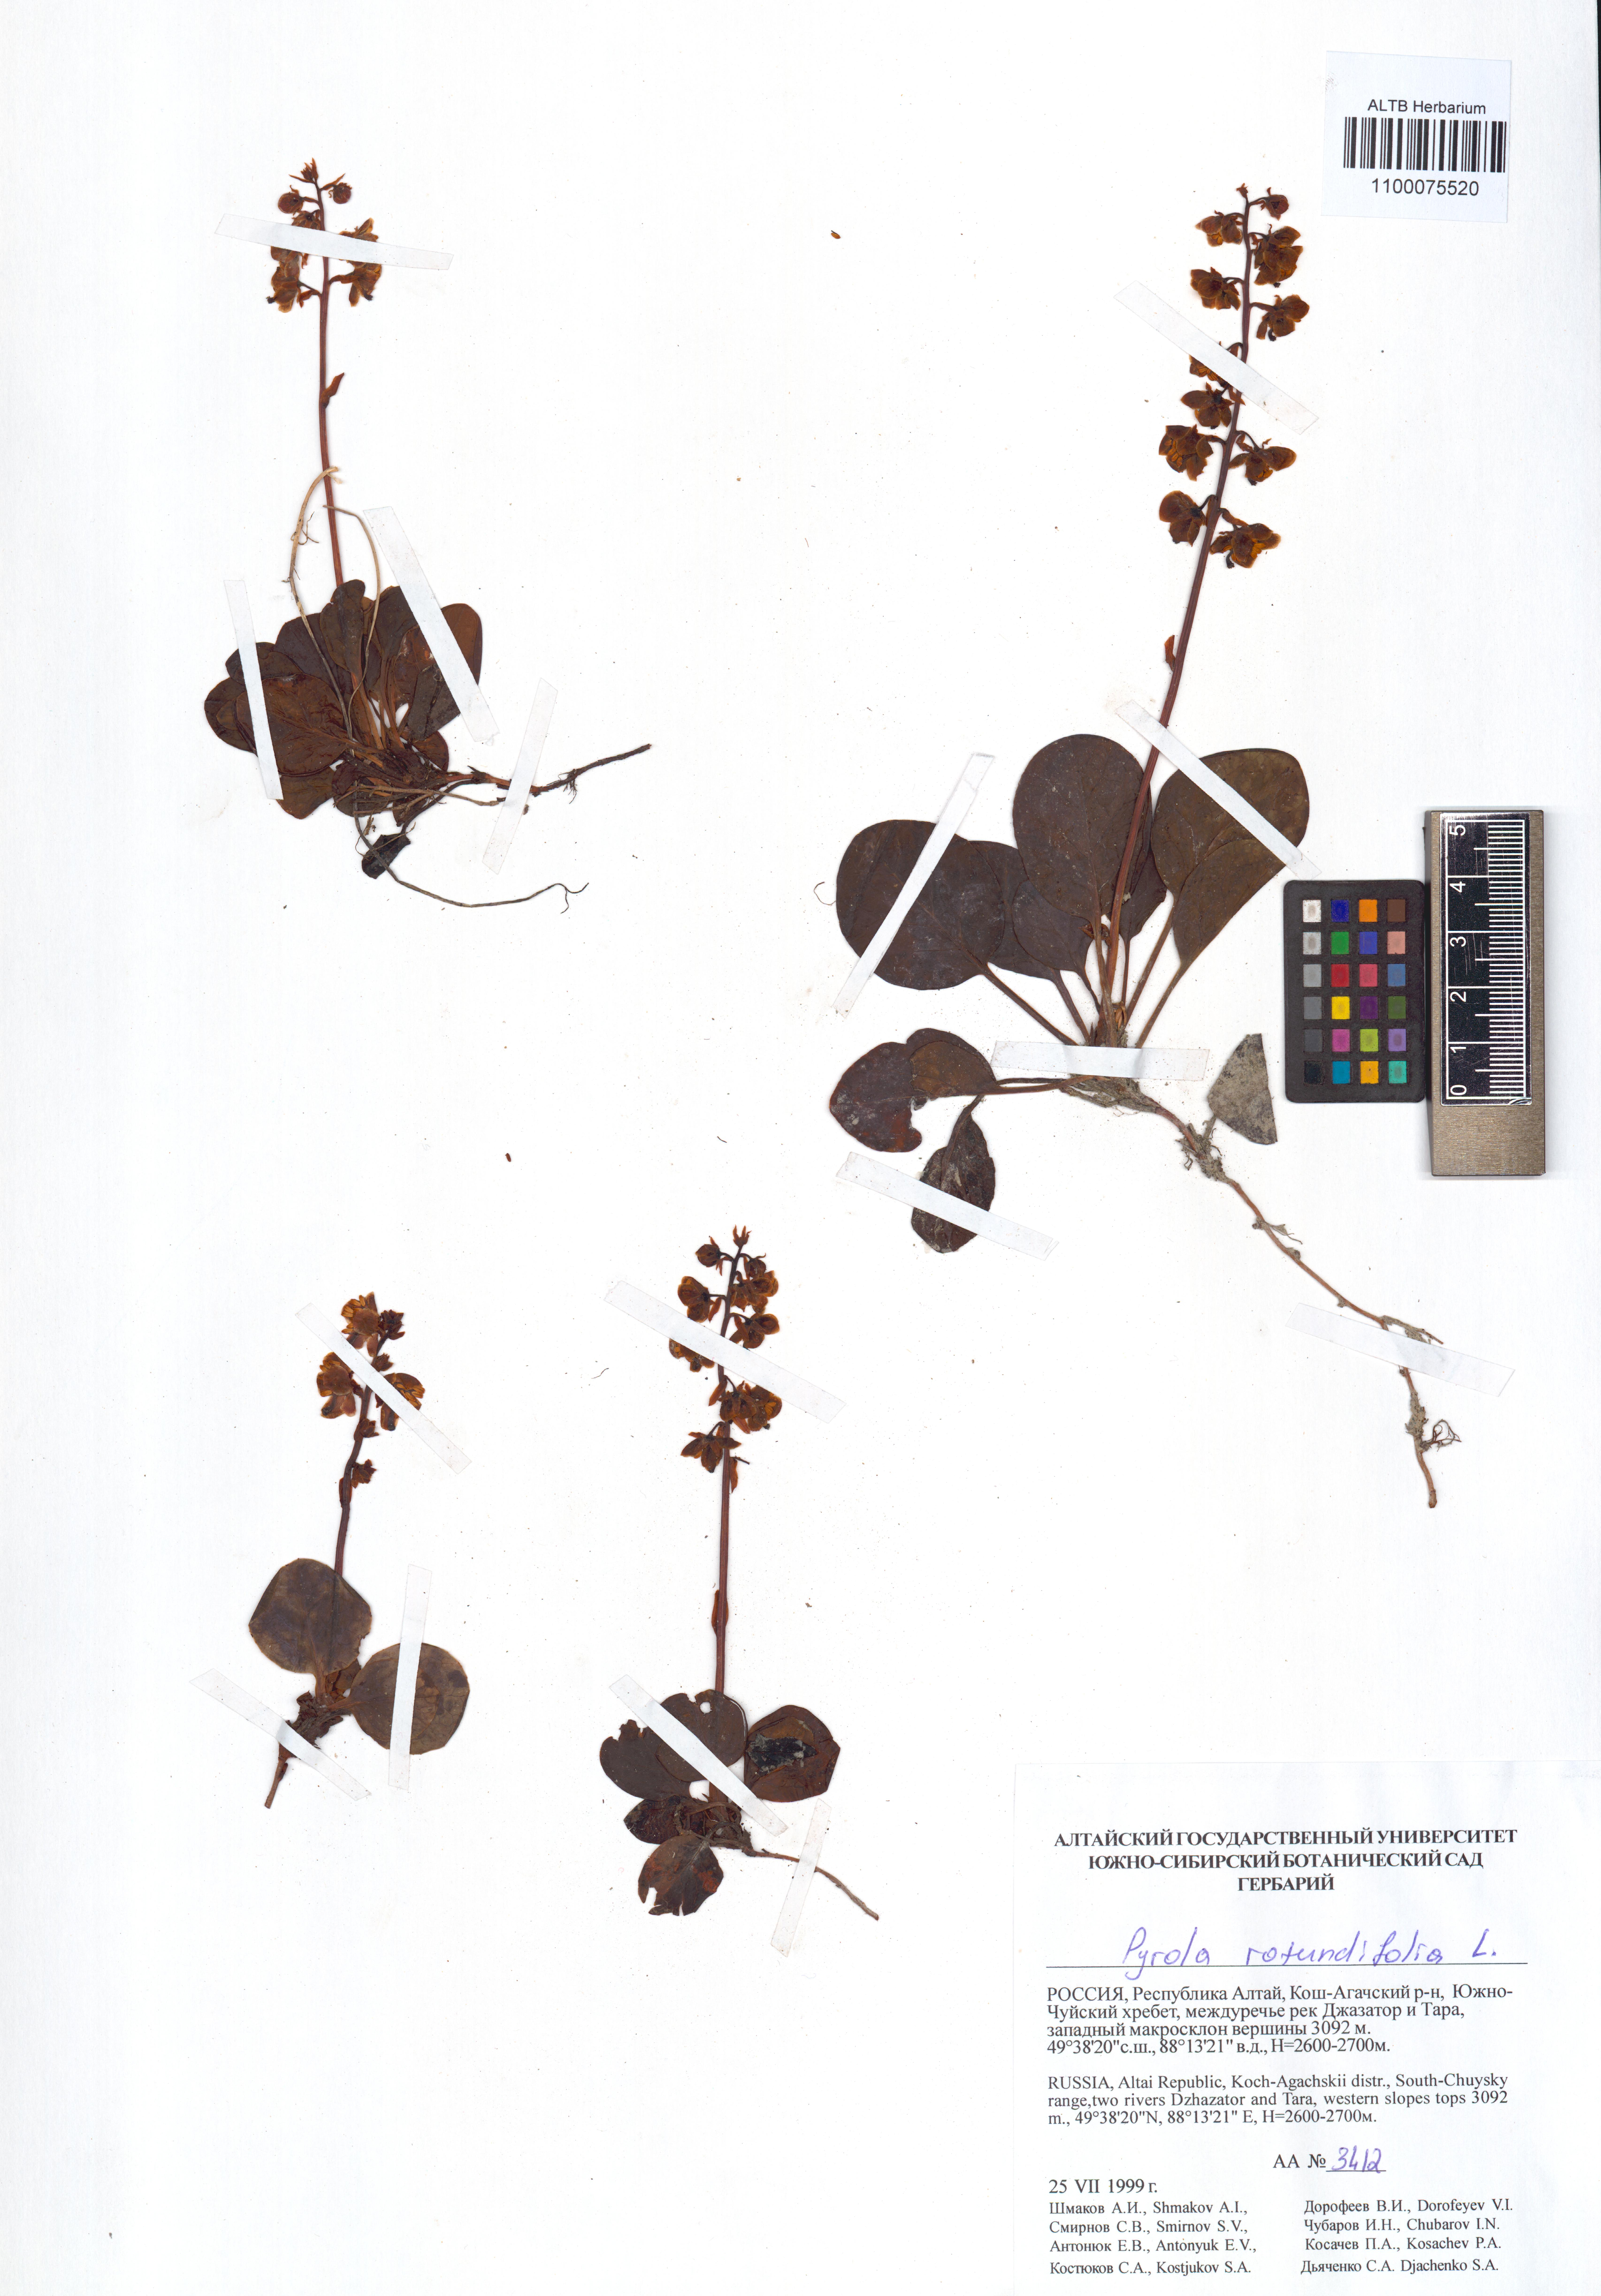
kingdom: Plantae
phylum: Tracheophyta
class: Magnoliopsida
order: Ericales
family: Ericaceae
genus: Pyrola
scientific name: Pyrola rotundifolia
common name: Round-leaved wintergreen
